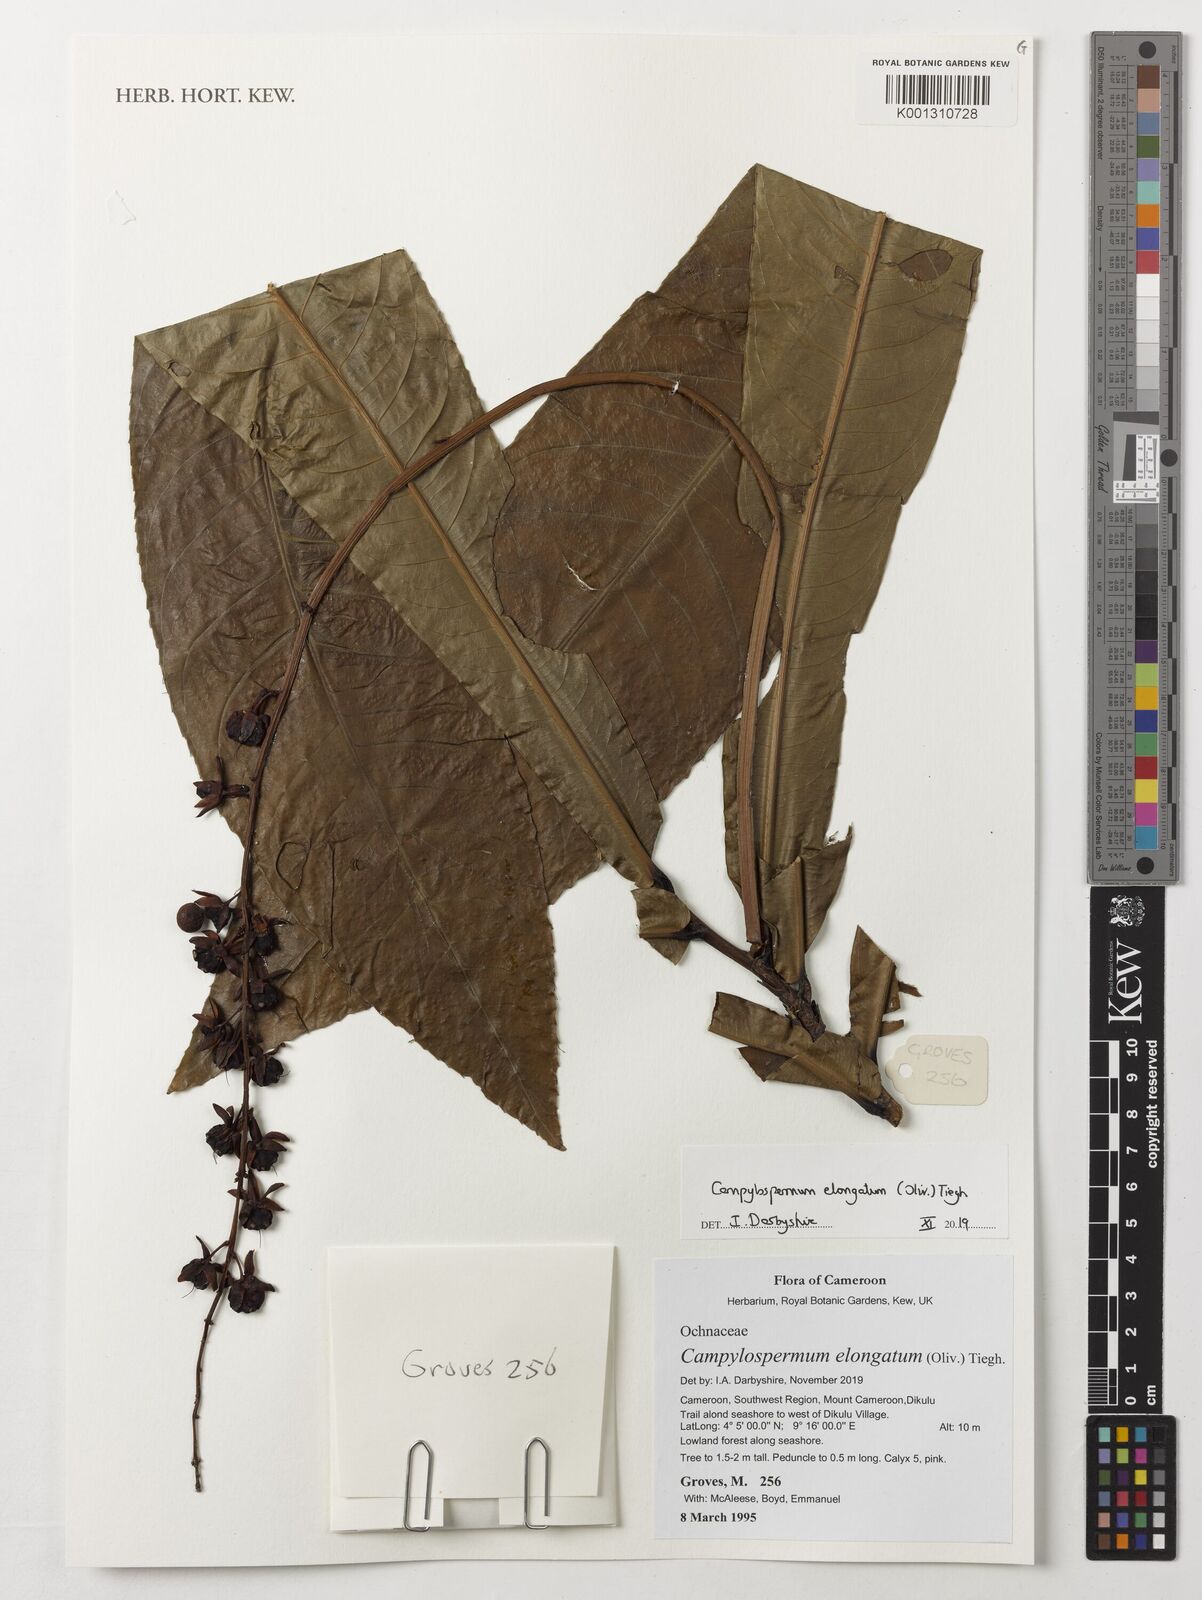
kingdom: Plantae
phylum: Tracheophyta
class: Magnoliopsida
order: Malpighiales
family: Ochnaceae
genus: Gomphia
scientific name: Gomphia elongata
